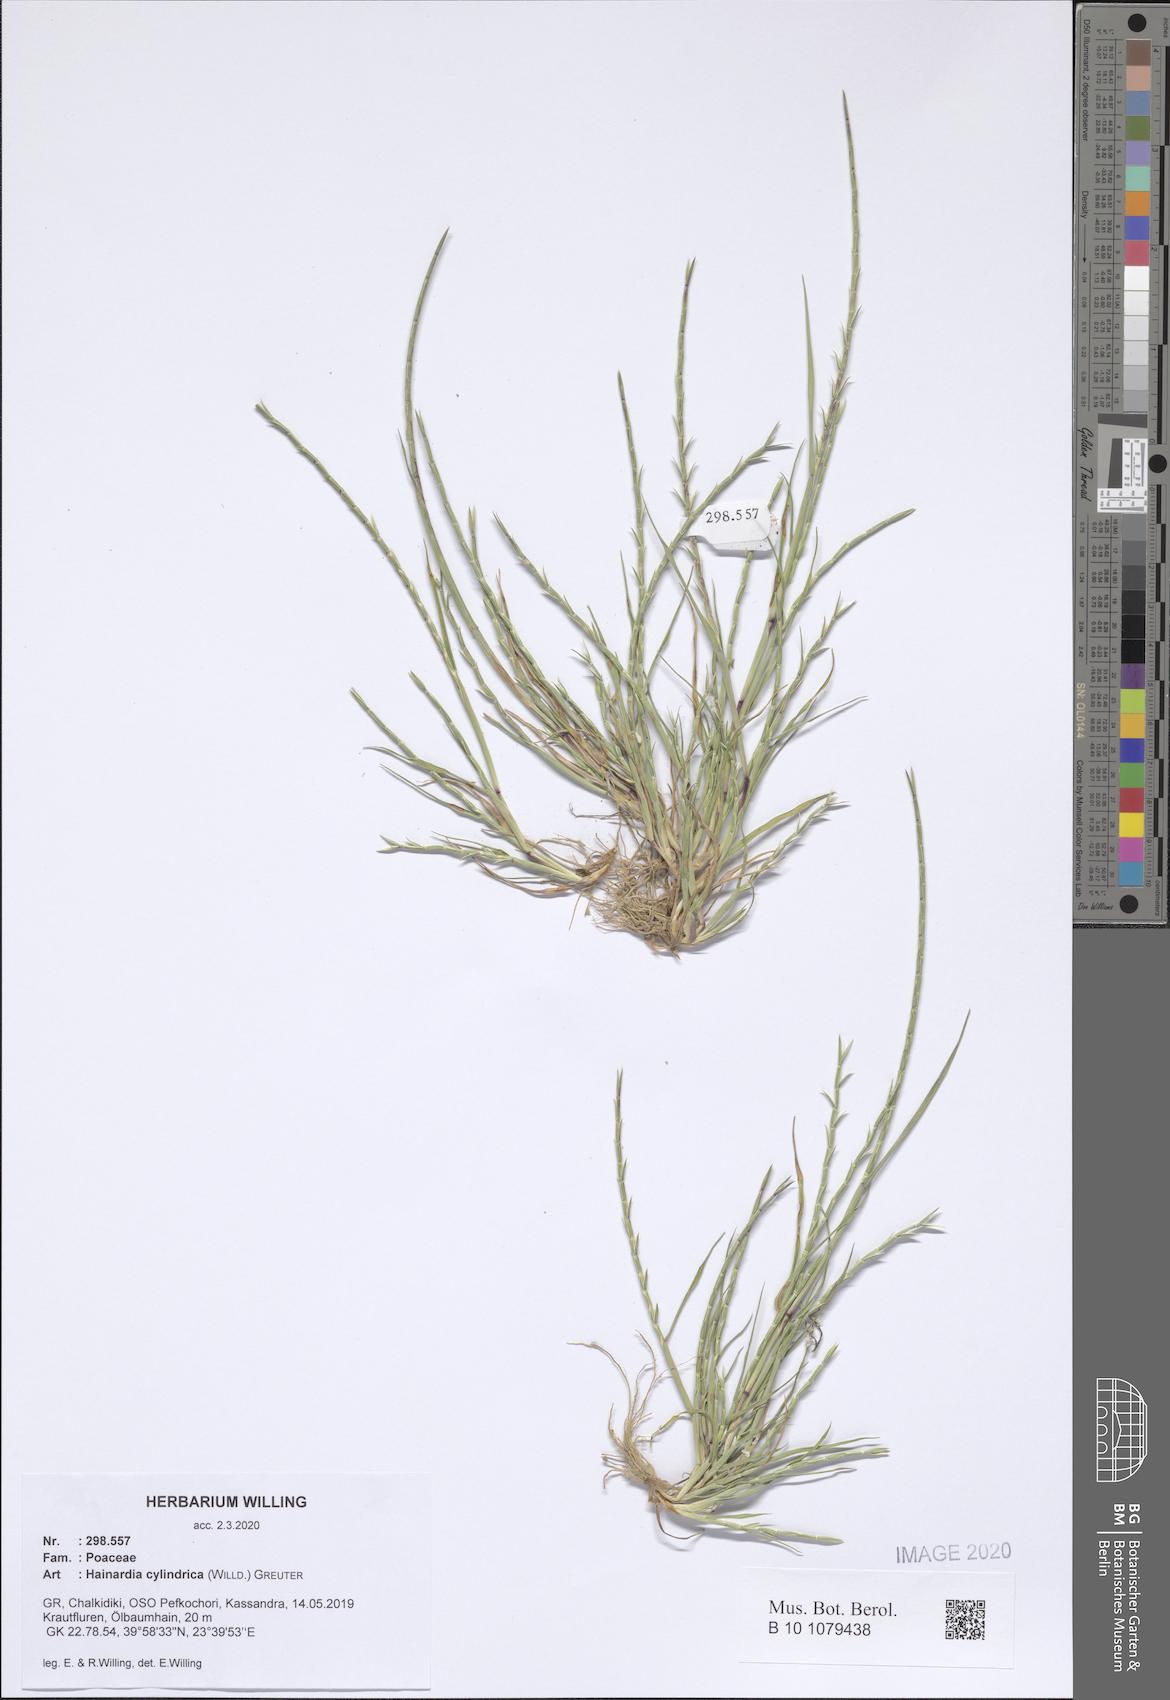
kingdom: Plantae
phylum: Tracheophyta
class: Liliopsida
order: Poales
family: Poaceae
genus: Parapholis
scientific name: Parapholis cylindrica
